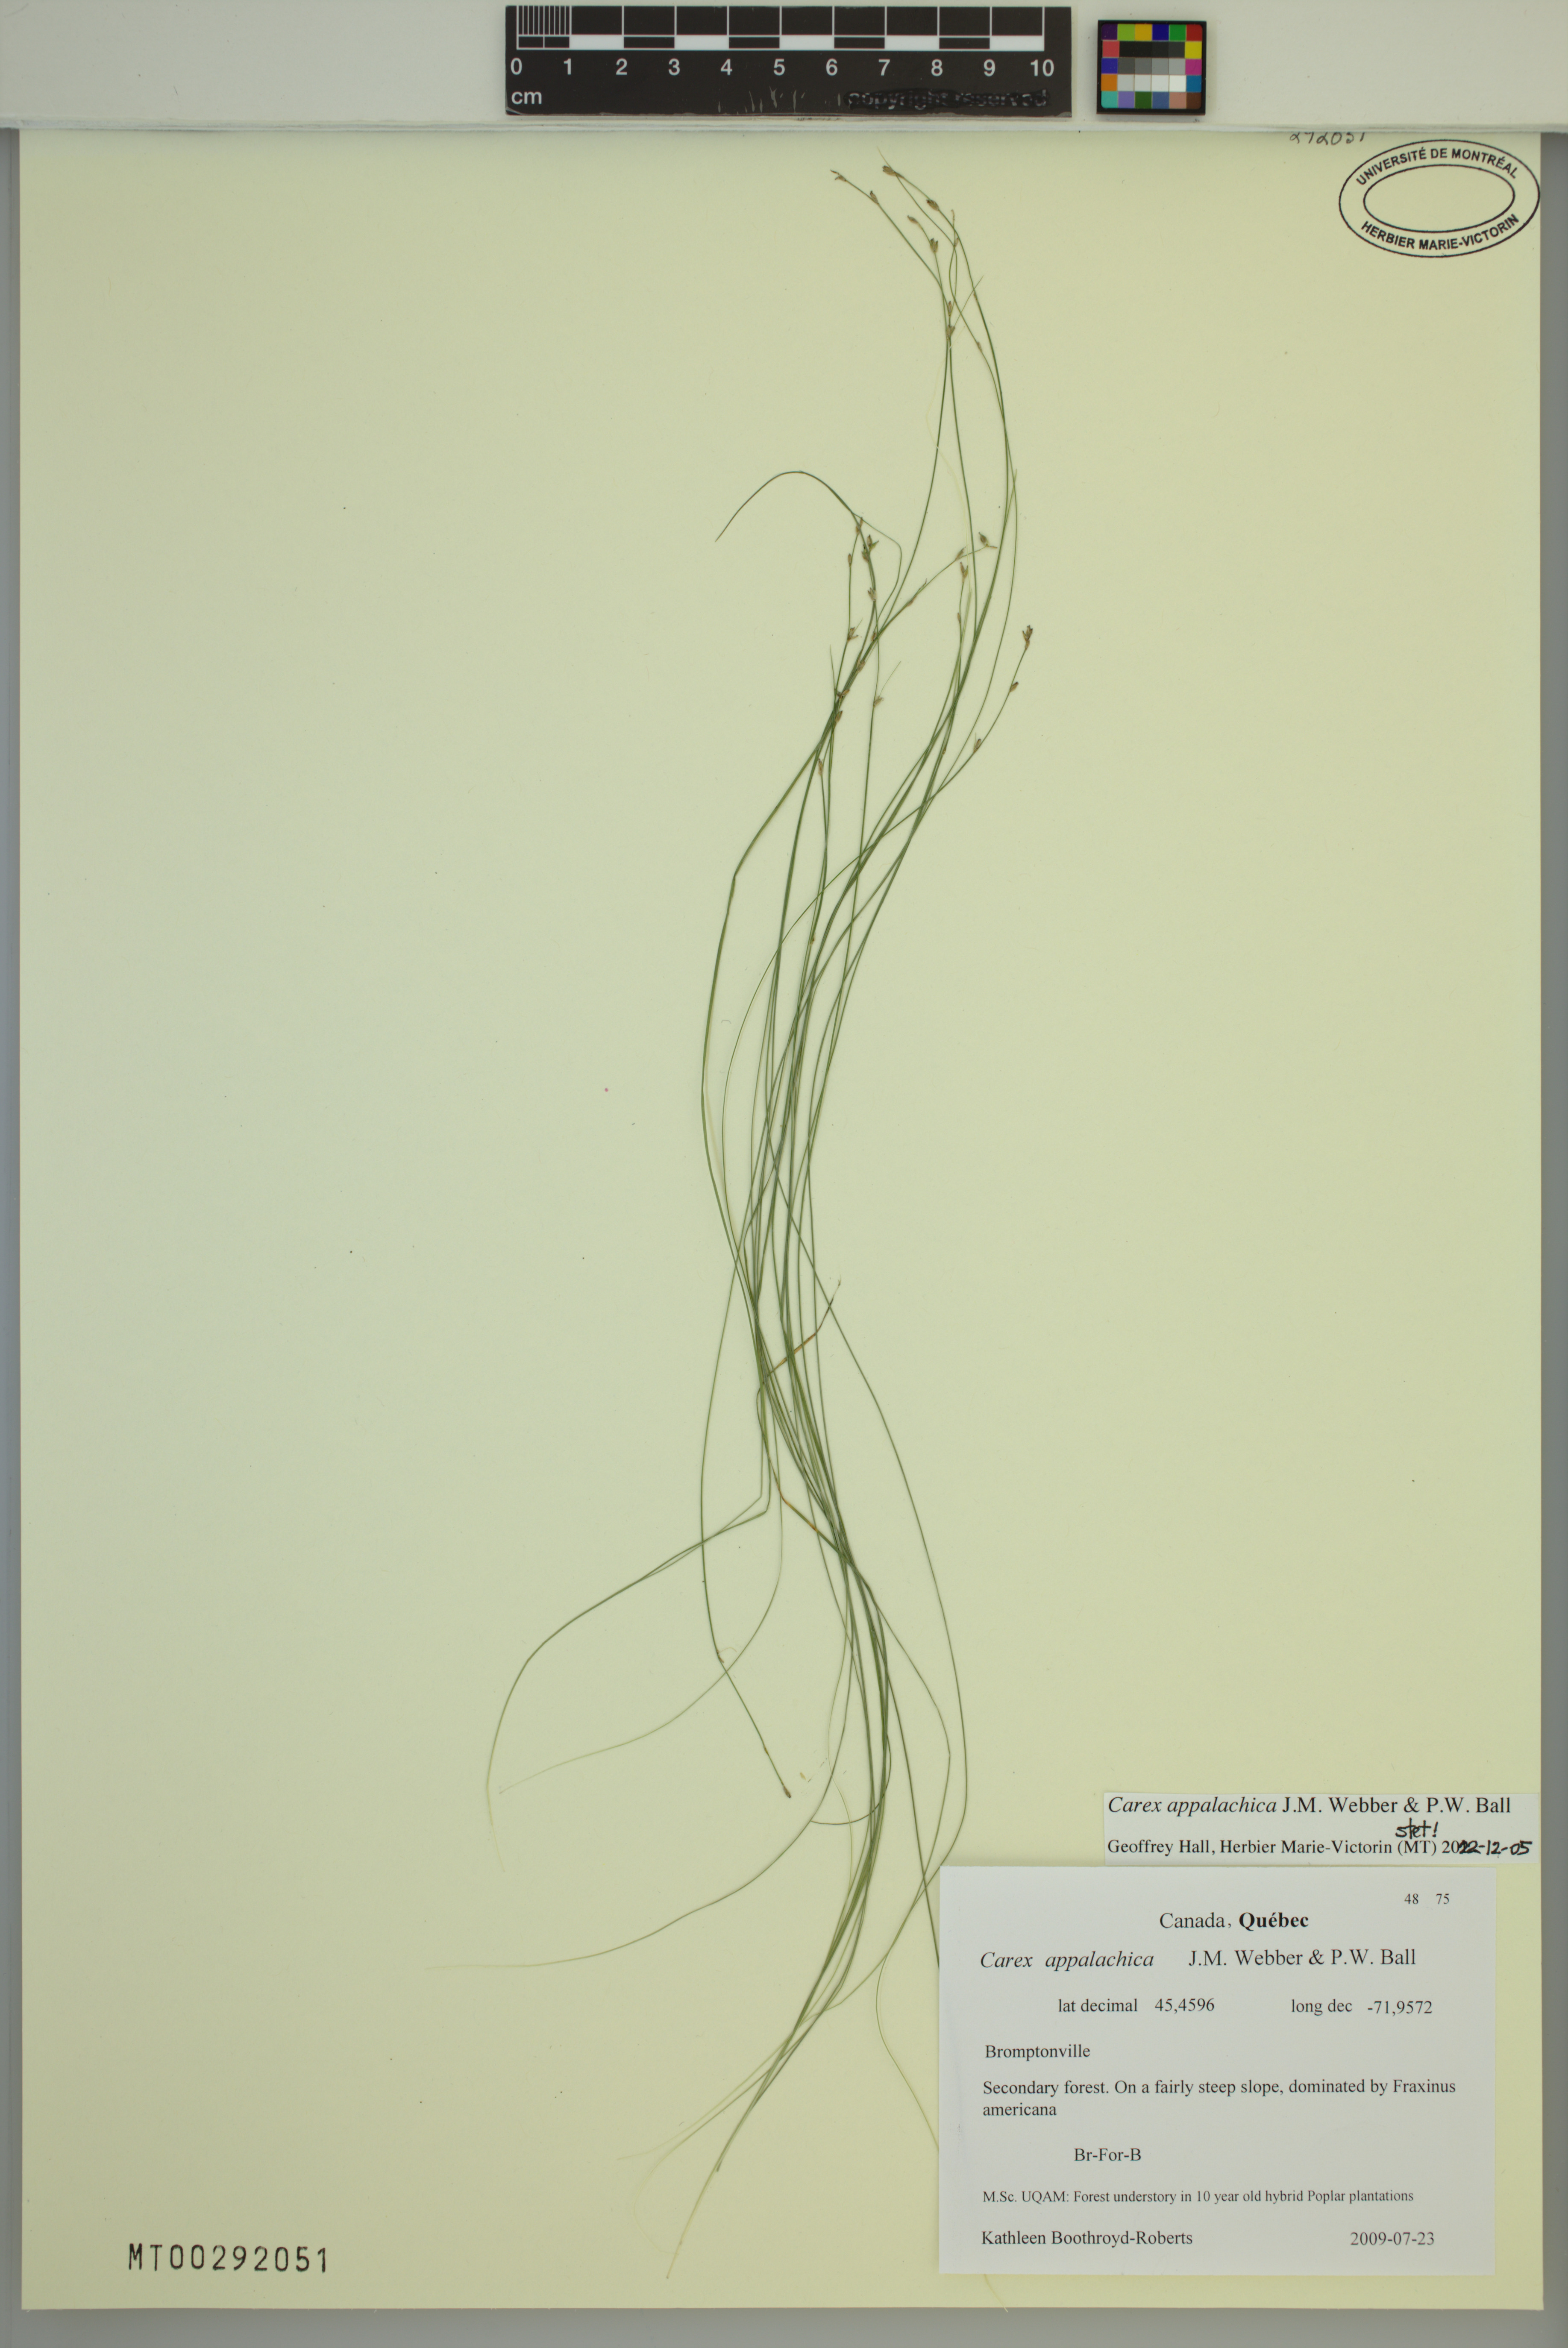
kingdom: Plantae
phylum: Tracheophyta
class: Liliopsida
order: Poales
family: Cyperaceae
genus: Carex
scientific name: Carex appalachica
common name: Appalachian sedge
